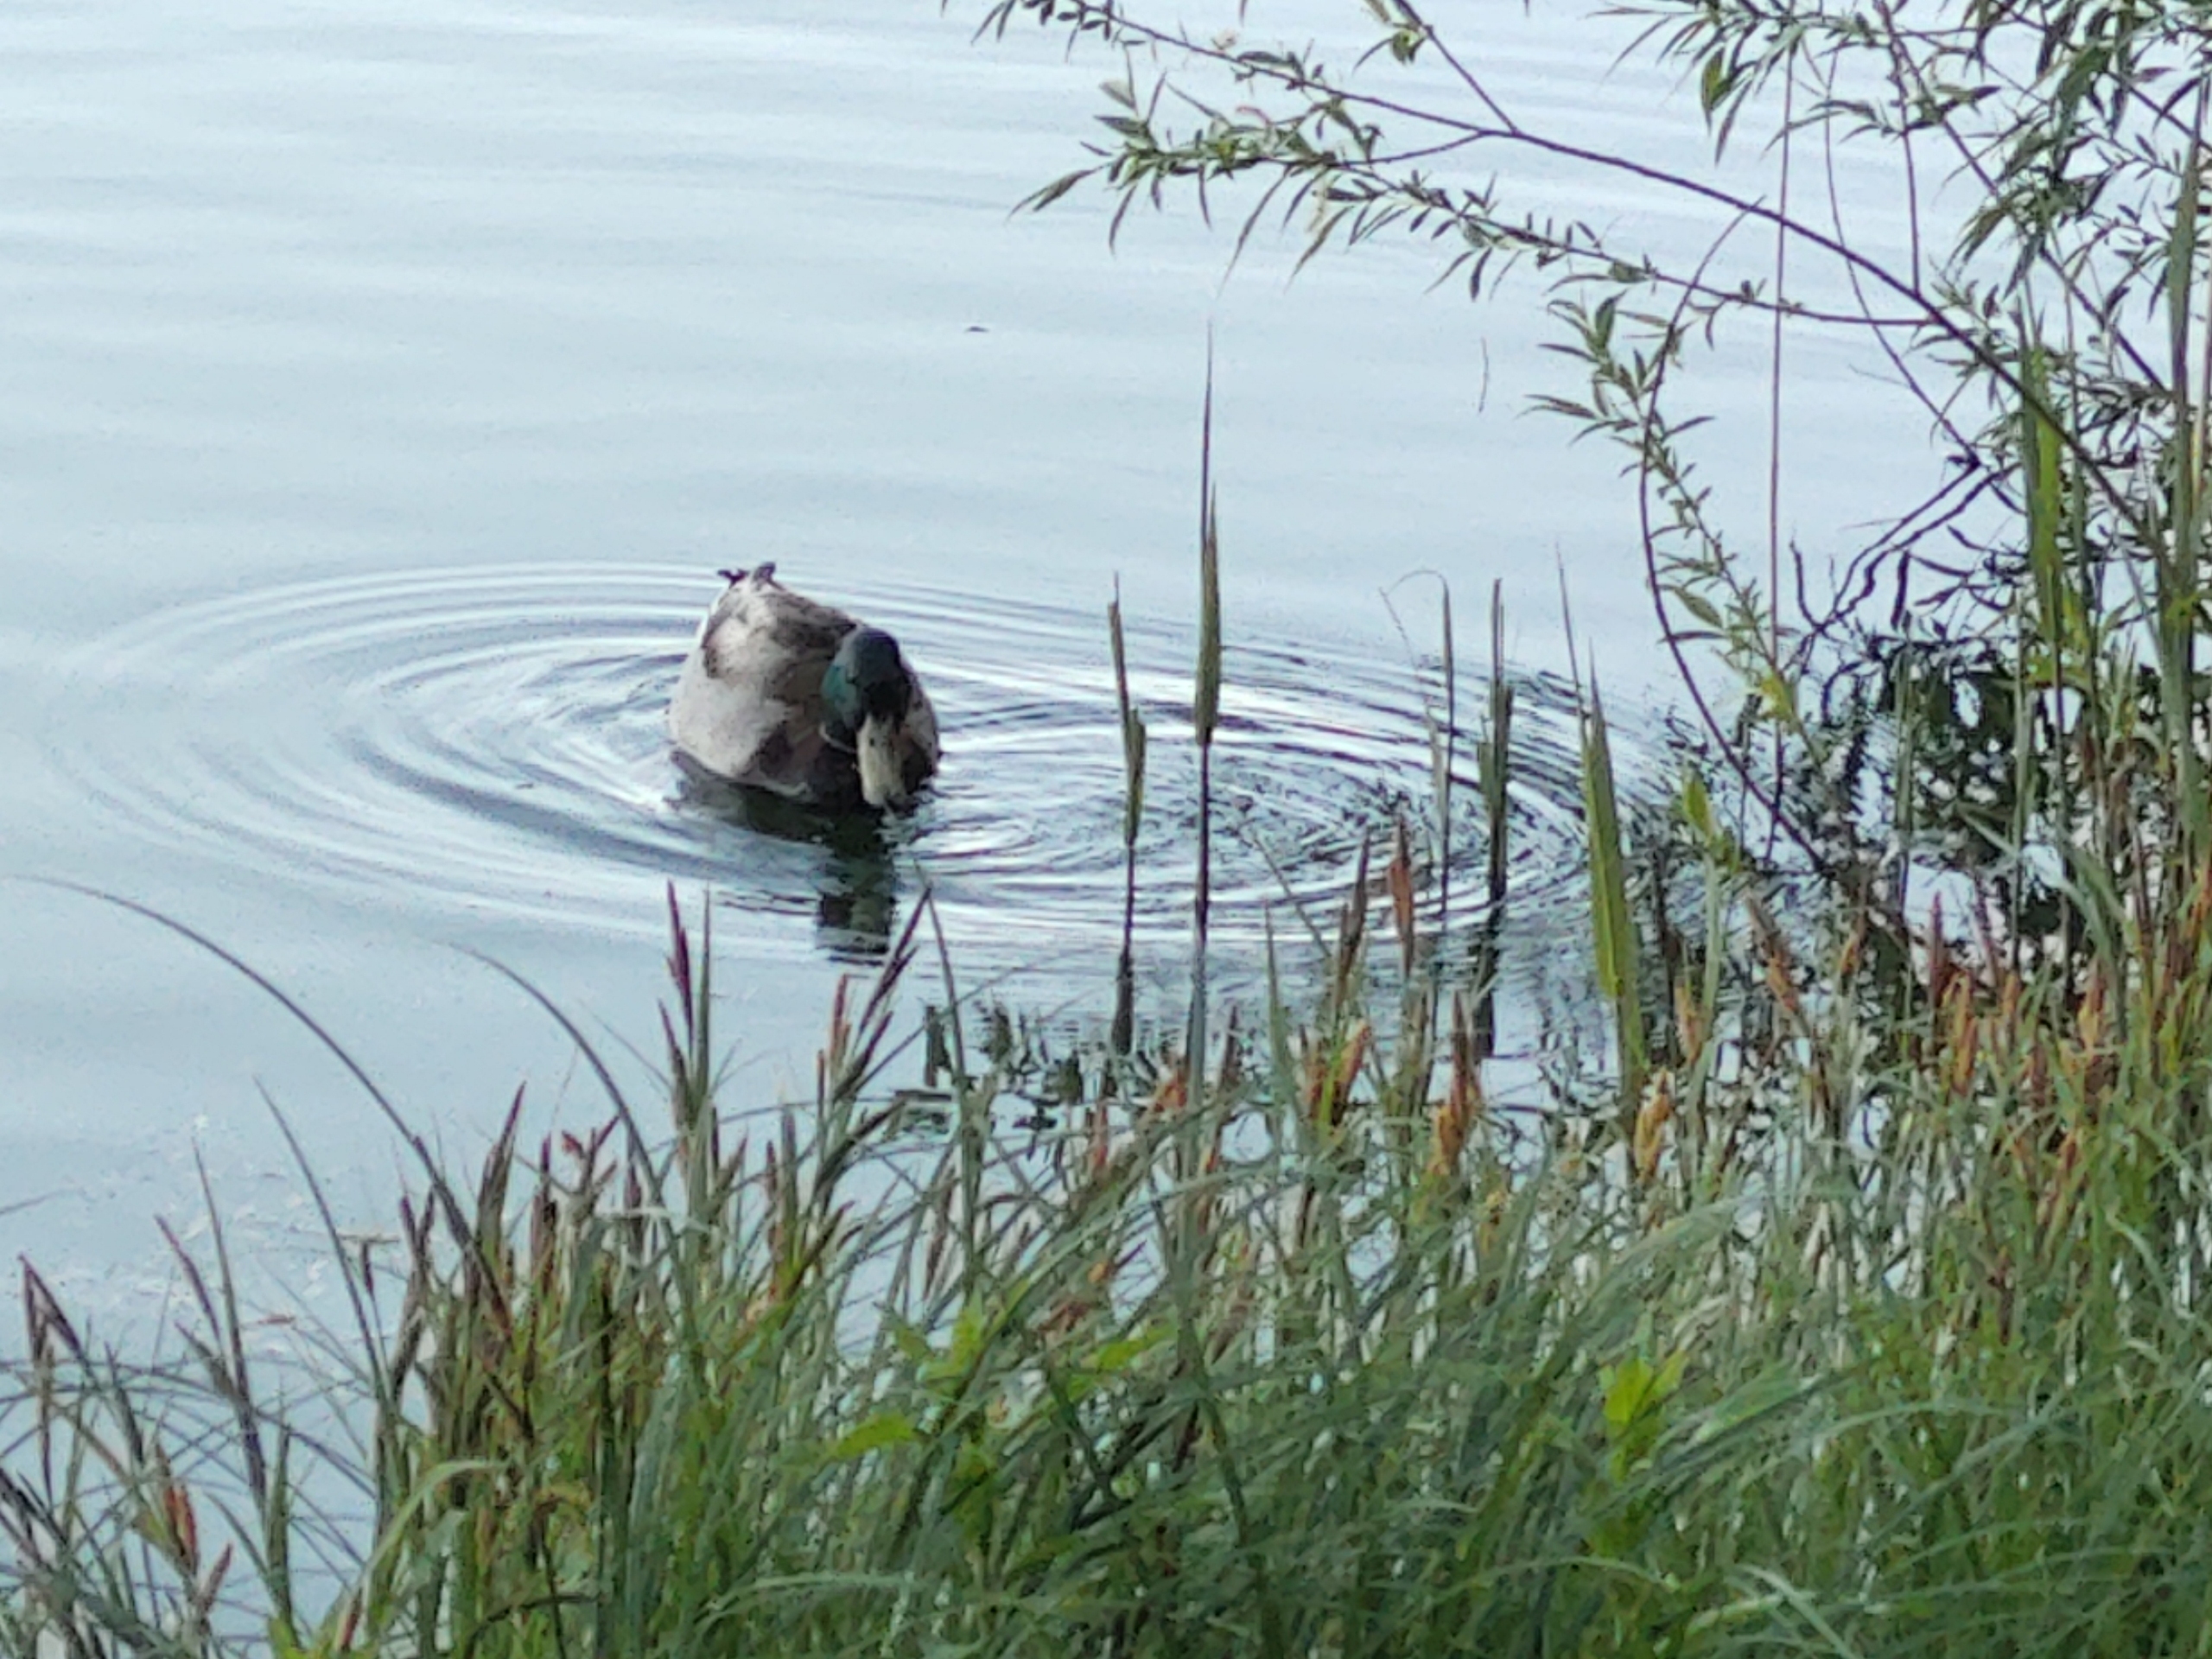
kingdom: Animalia
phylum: Chordata
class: Aves
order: Anseriformes
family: Anatidae
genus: Anas
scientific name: Anas platyrhynchos
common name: Gråand
